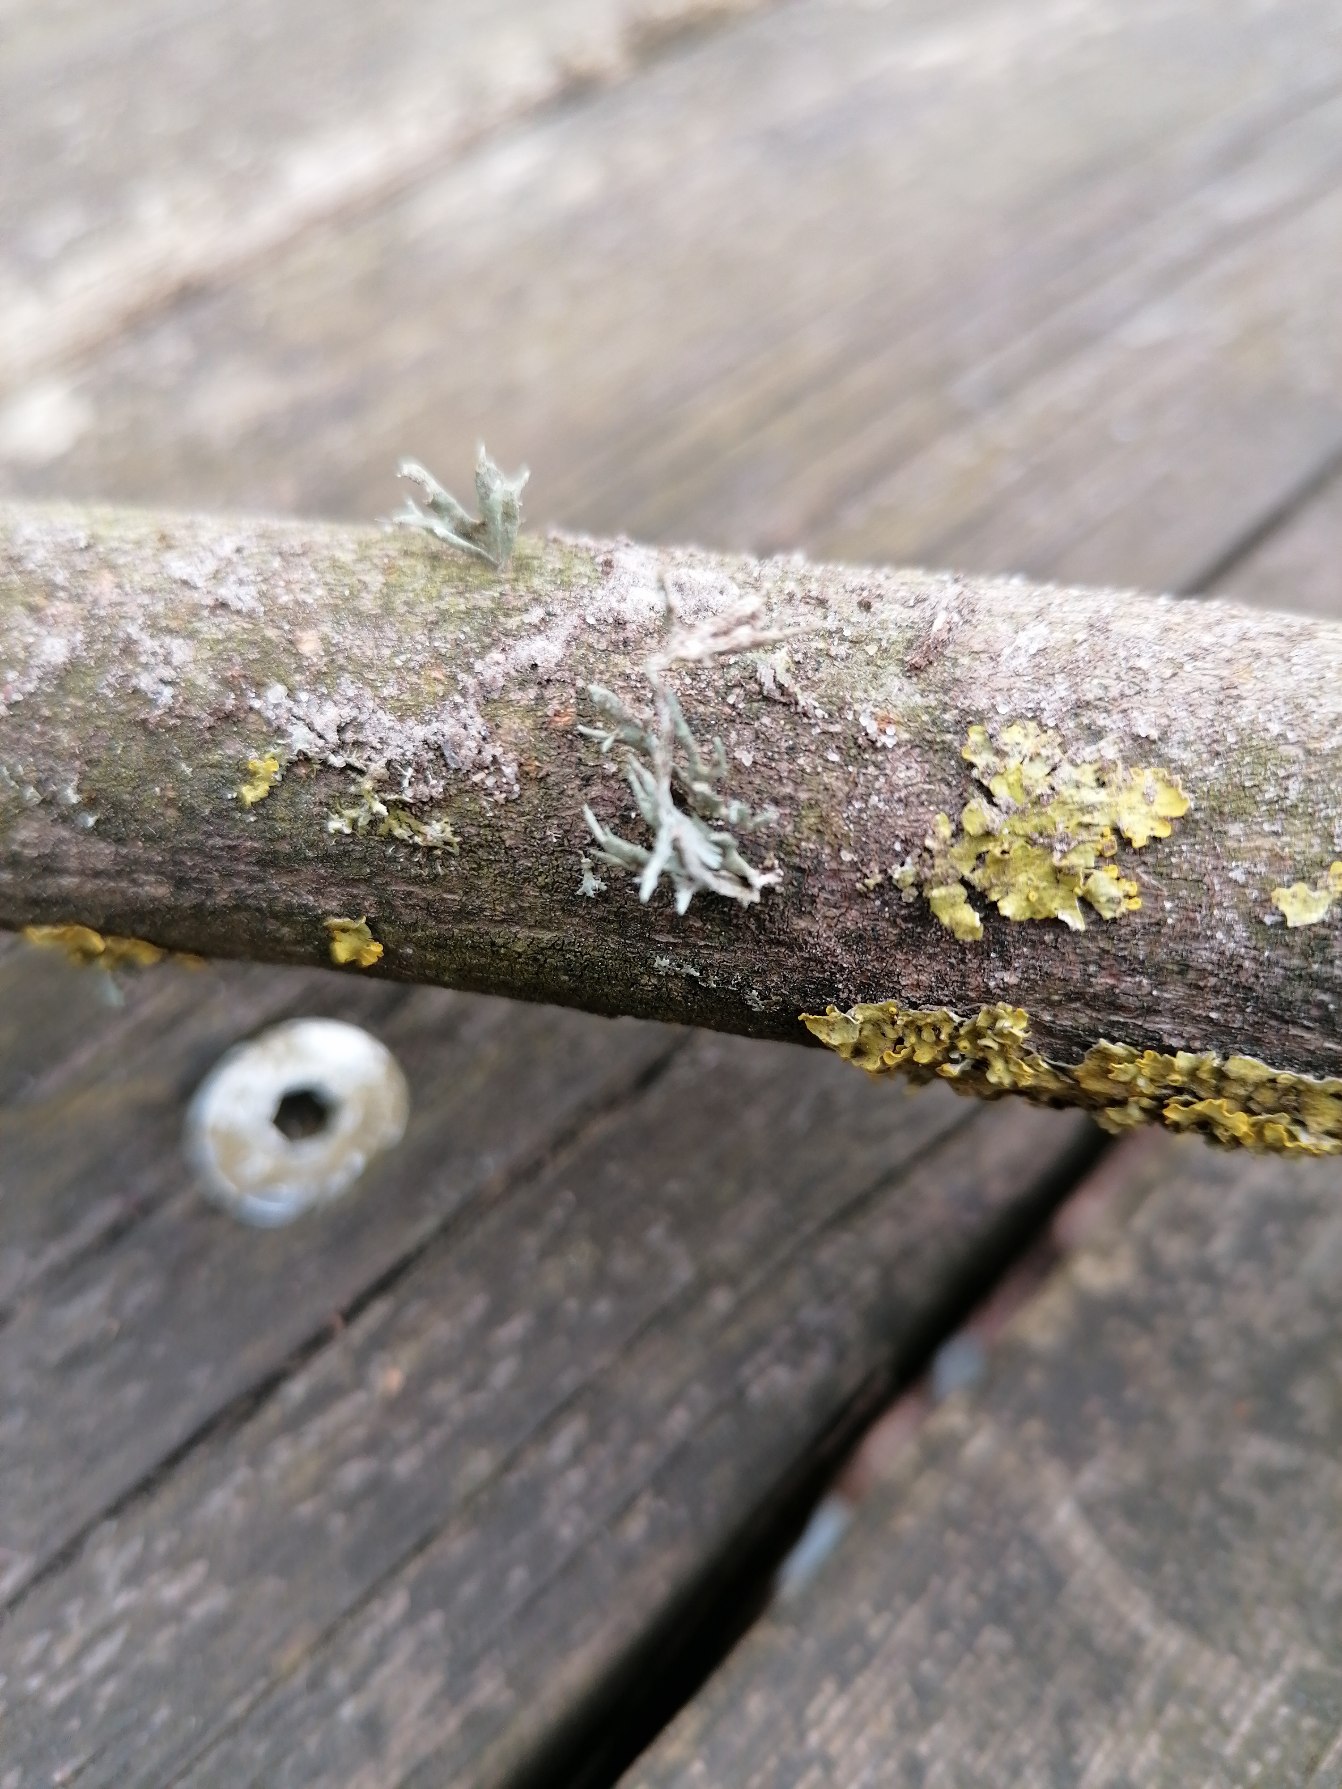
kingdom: Fungi
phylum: Ascomycota
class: Lecanoromycetes
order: Lecanorales
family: Ramalinaceae
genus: Ramalina
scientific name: Ramalina farinacea
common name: Melet grenlav
